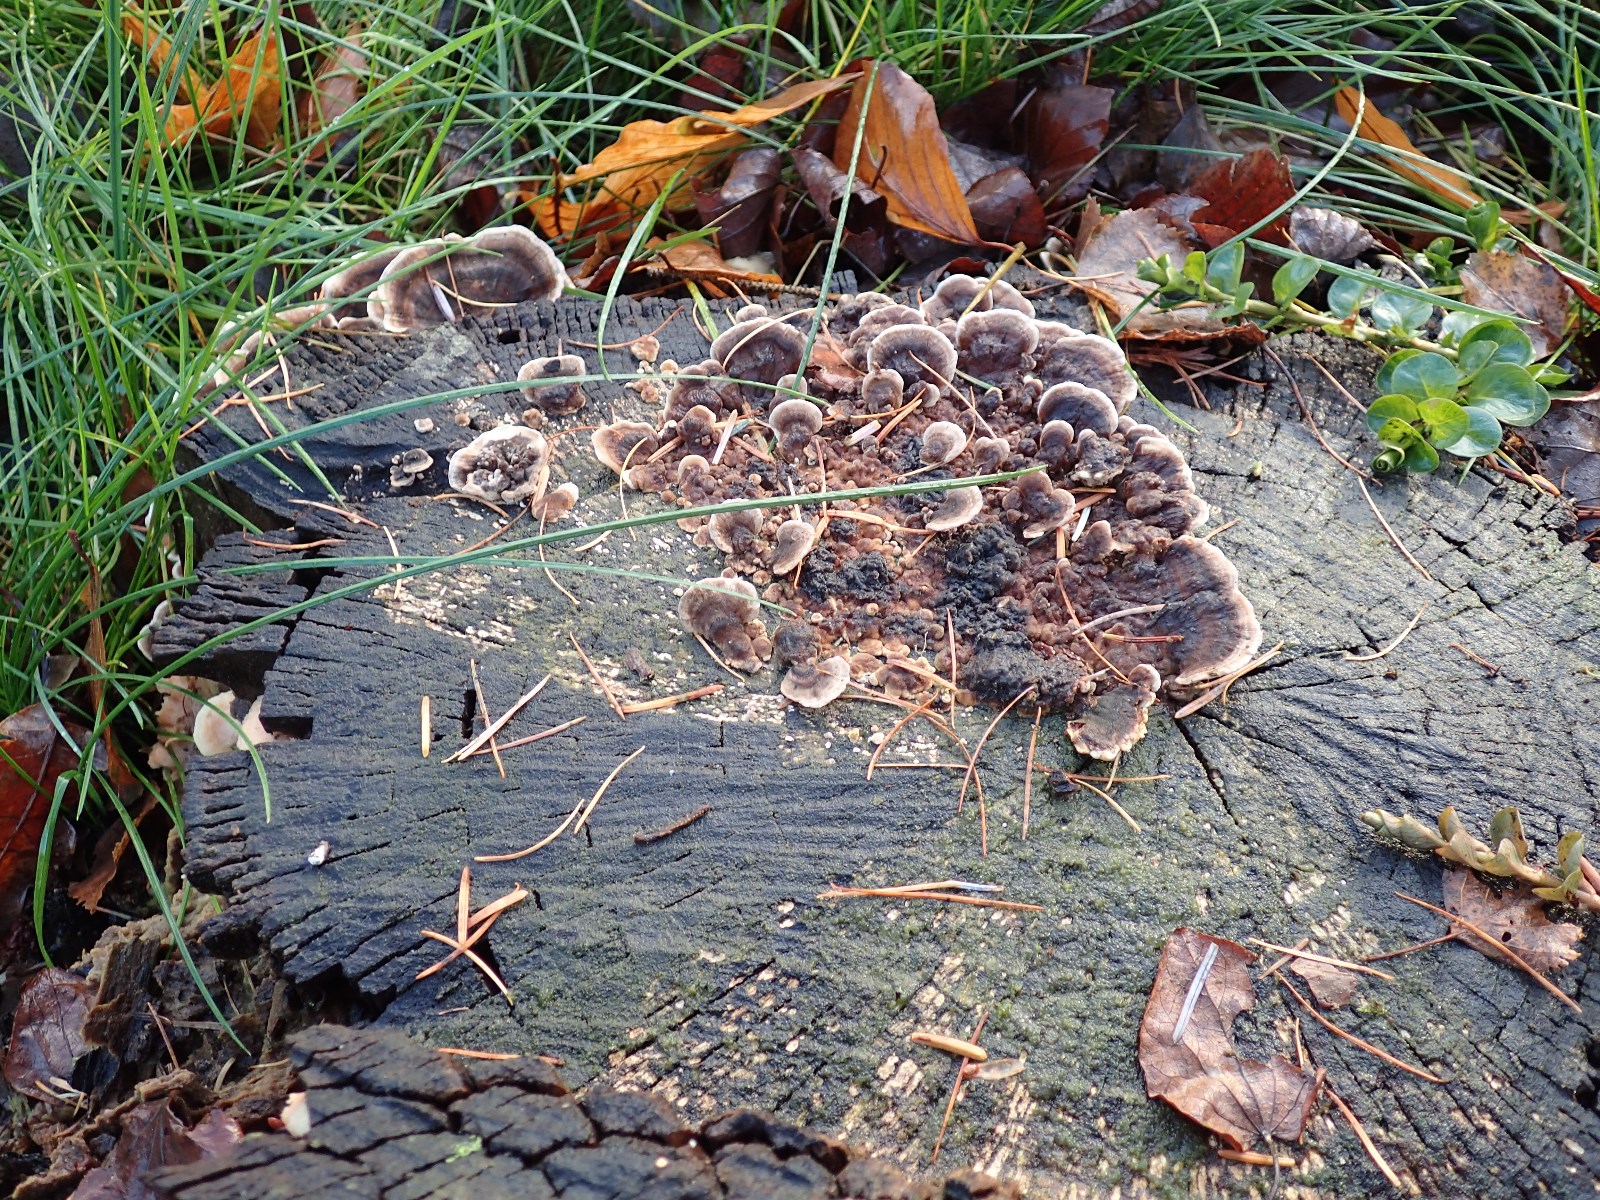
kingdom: Fungi
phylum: Basidiomycota
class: Agaricomycetes
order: Polyporales
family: Polyporaceae
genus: Trametes
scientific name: Trametes versicolor
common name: broget læderporesvamp
